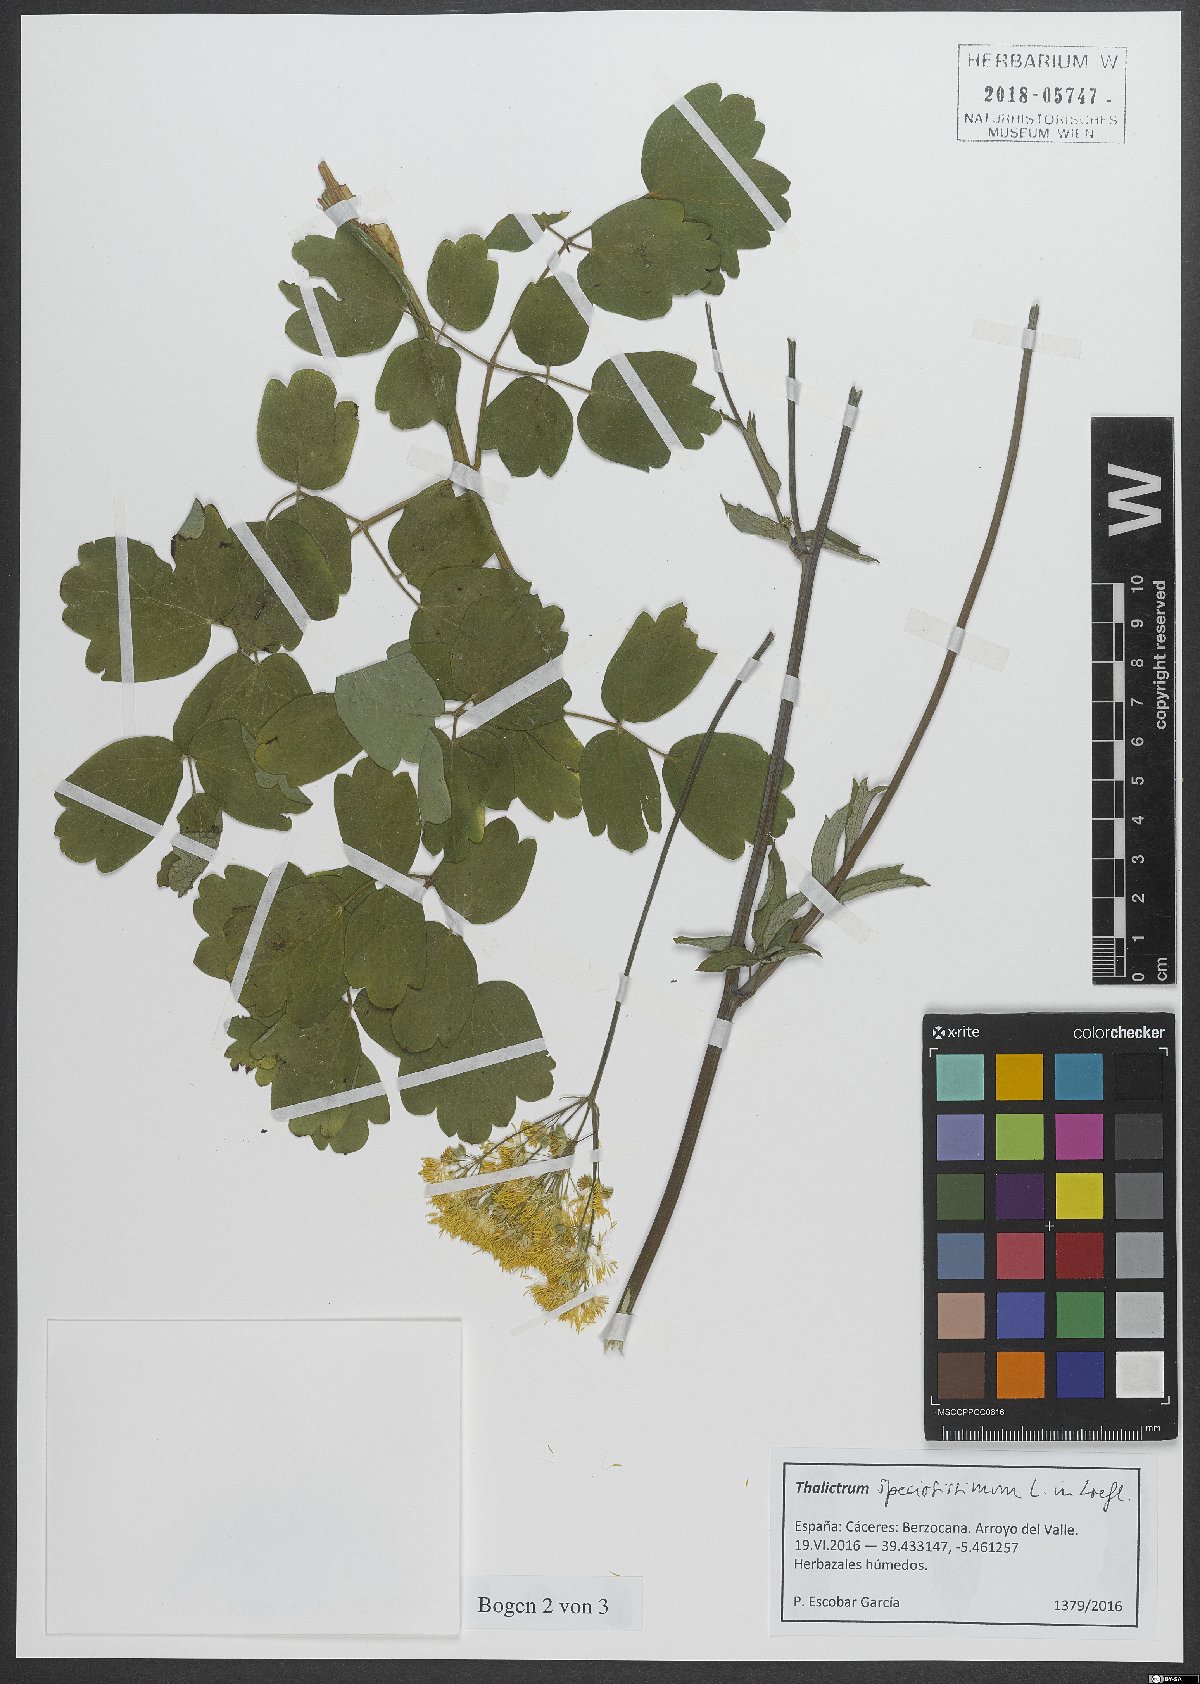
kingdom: Plantae
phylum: Tracheophyta
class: Magnoliopsida
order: Ranunculales
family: Ranunculaceae
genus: Thalictrum
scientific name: Thalictrum speciosissimum
